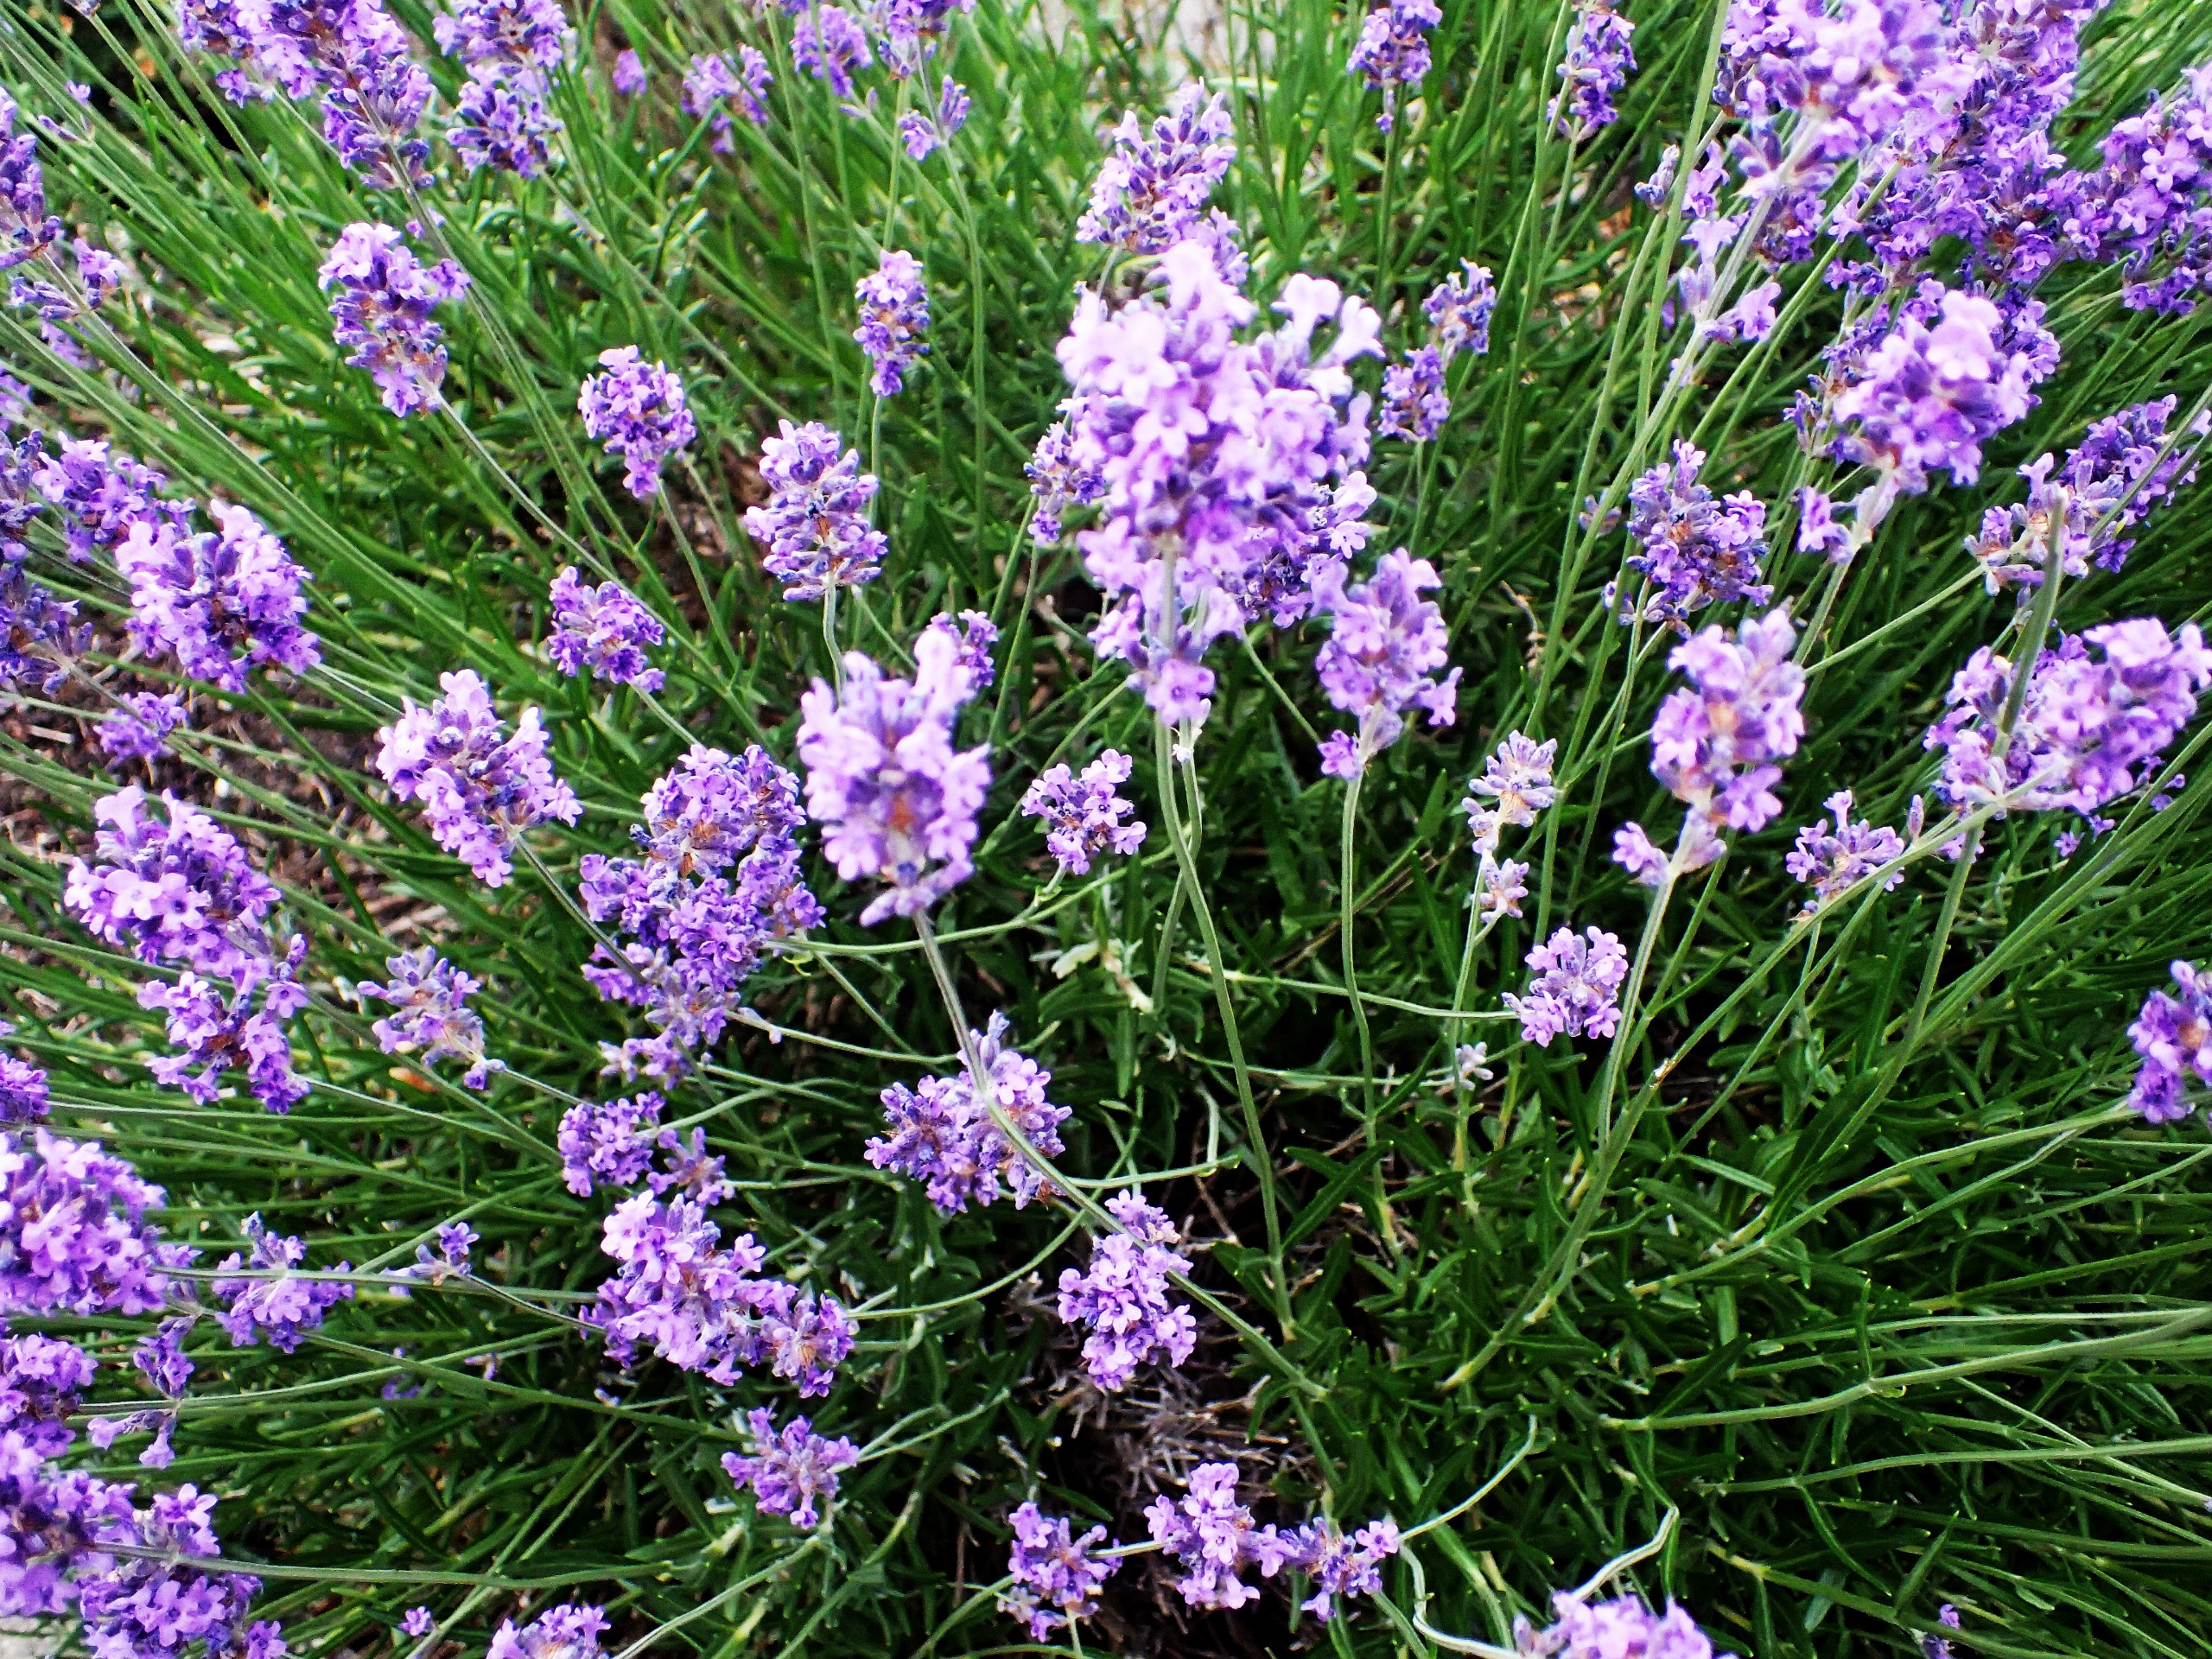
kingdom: Plantae
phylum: Tracheophyta
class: Magnoliopsida
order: Lamiales
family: Lamiaceae
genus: Lavandula
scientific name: Lavandula angustifolia
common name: Ægte lavendel
